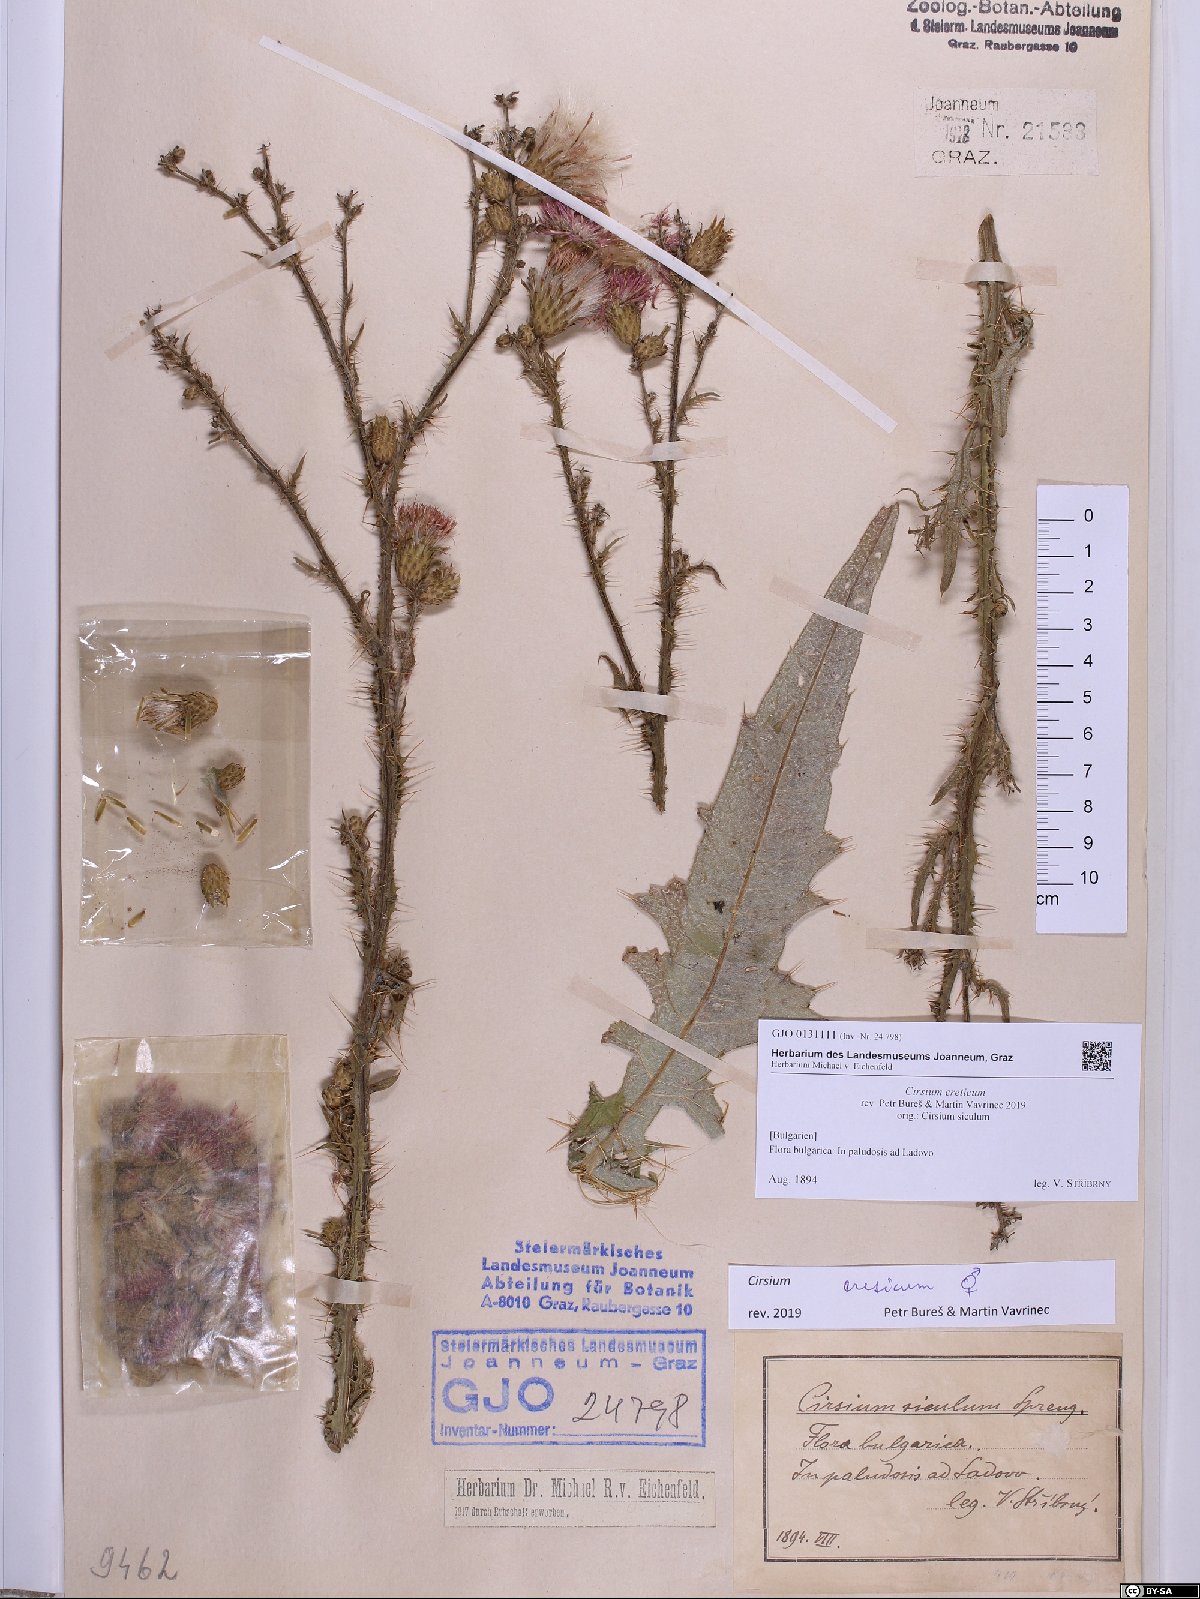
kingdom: Plantae
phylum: Tracheophyta
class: Magnoliopsida
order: Asterales
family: Asteraceae
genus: Cirsium
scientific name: Cirsium creticum
